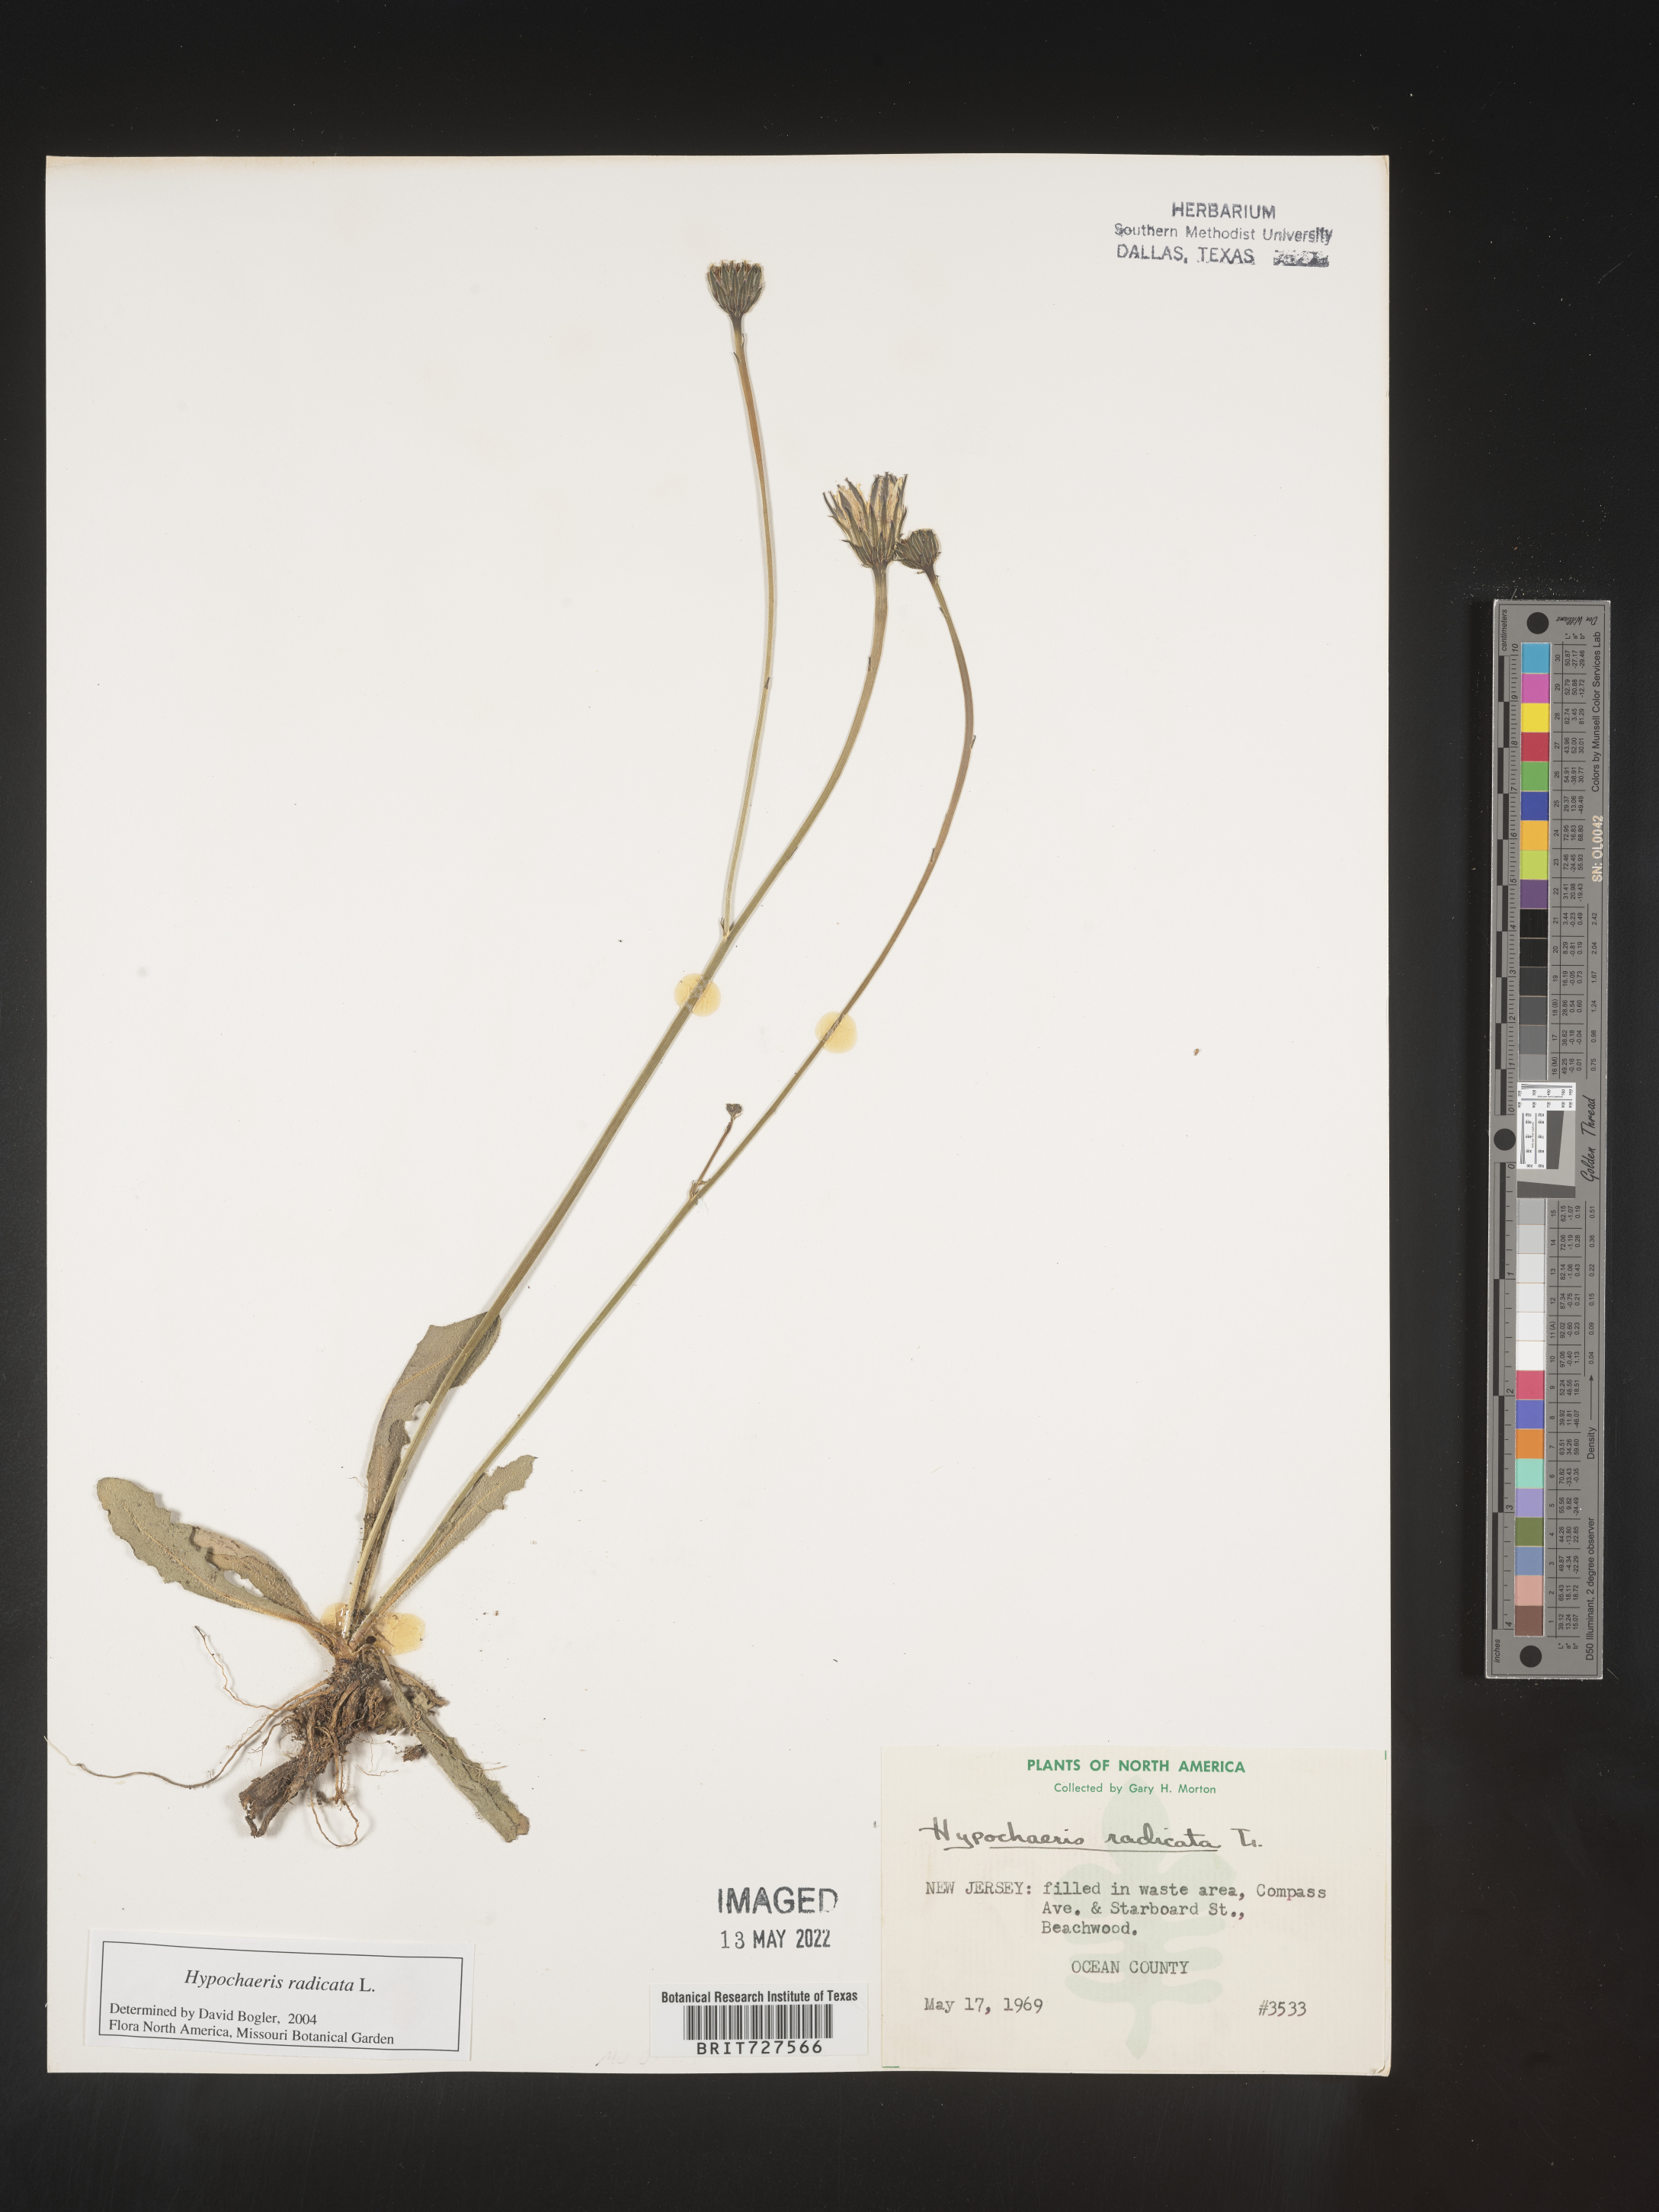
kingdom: Plantae
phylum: Tracheophyta
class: Magnoliopsida
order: Asterales
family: Asteraceae
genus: Hypochaeris
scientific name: Hypochaeris radicata
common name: Flatweed
